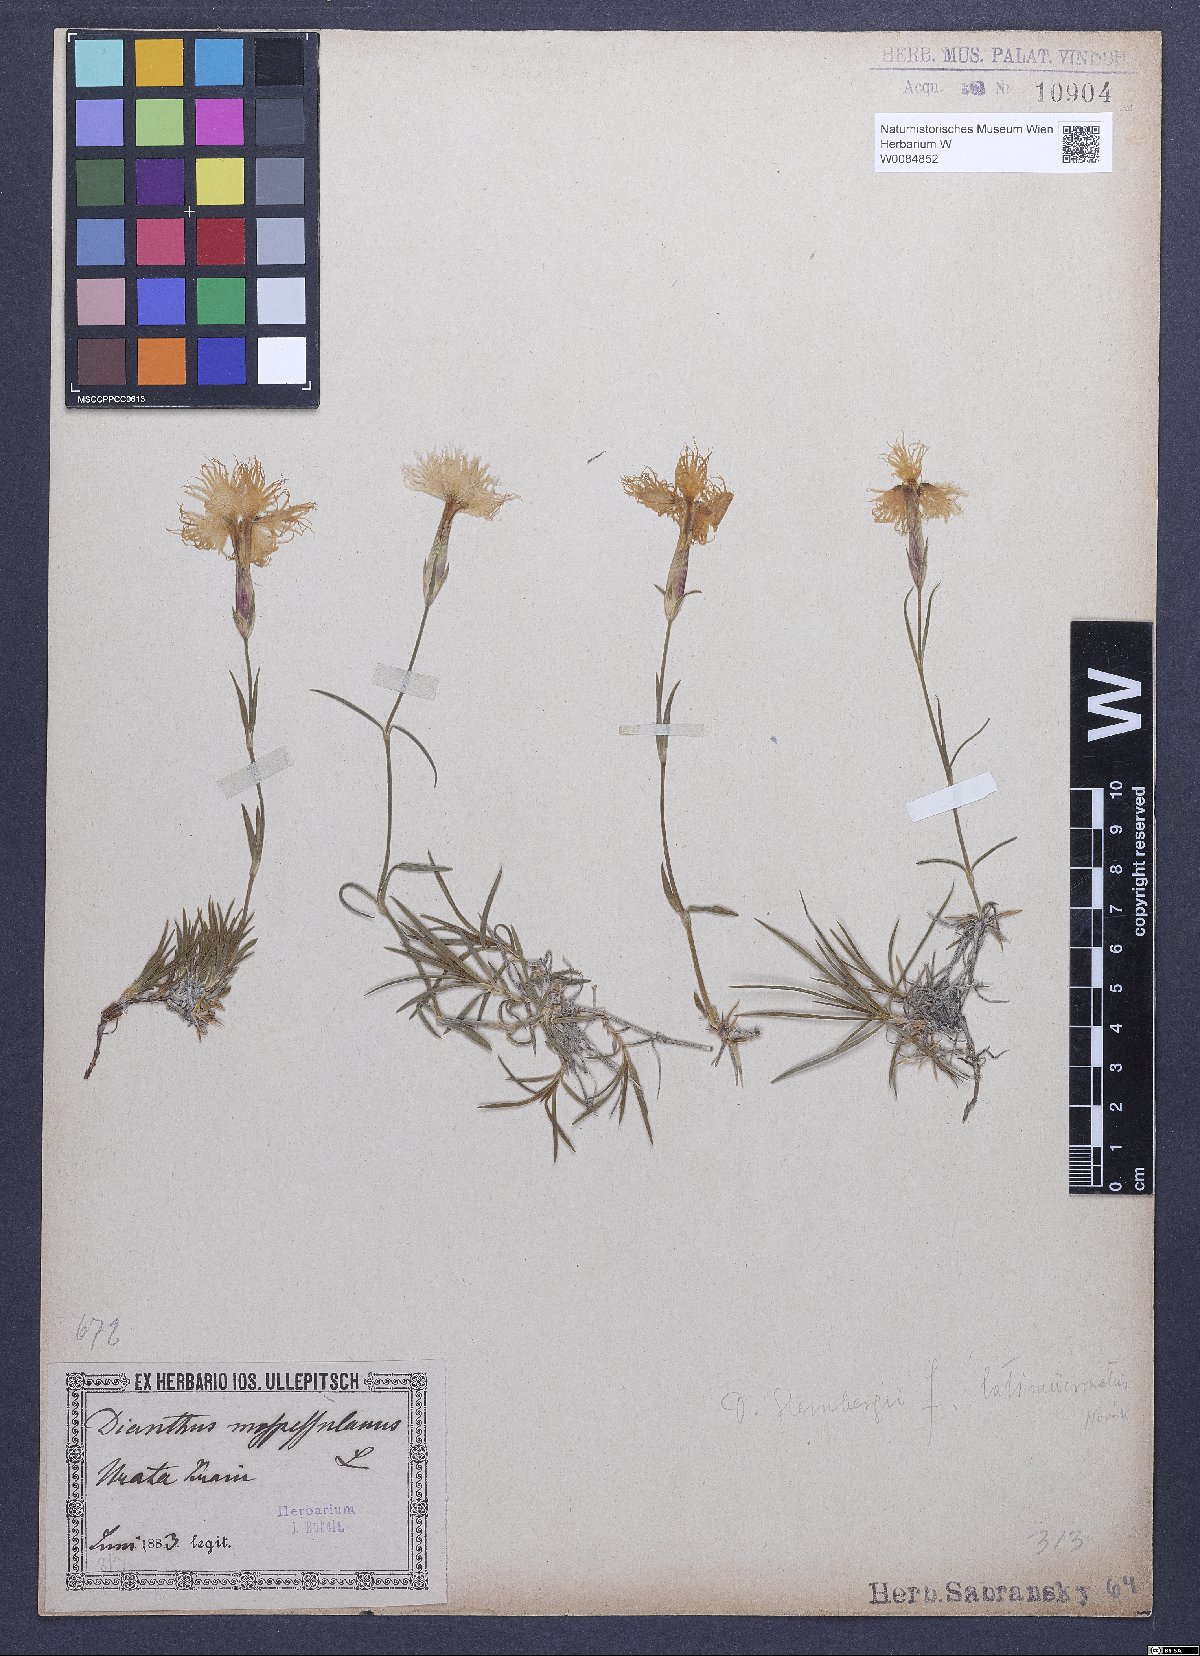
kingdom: Plantae
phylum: Tracheophyta
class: Magnoliopsida
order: Caryophyllales
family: Caryophyllaceae
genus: Dianthus
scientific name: Dianthus hyssopifolius
